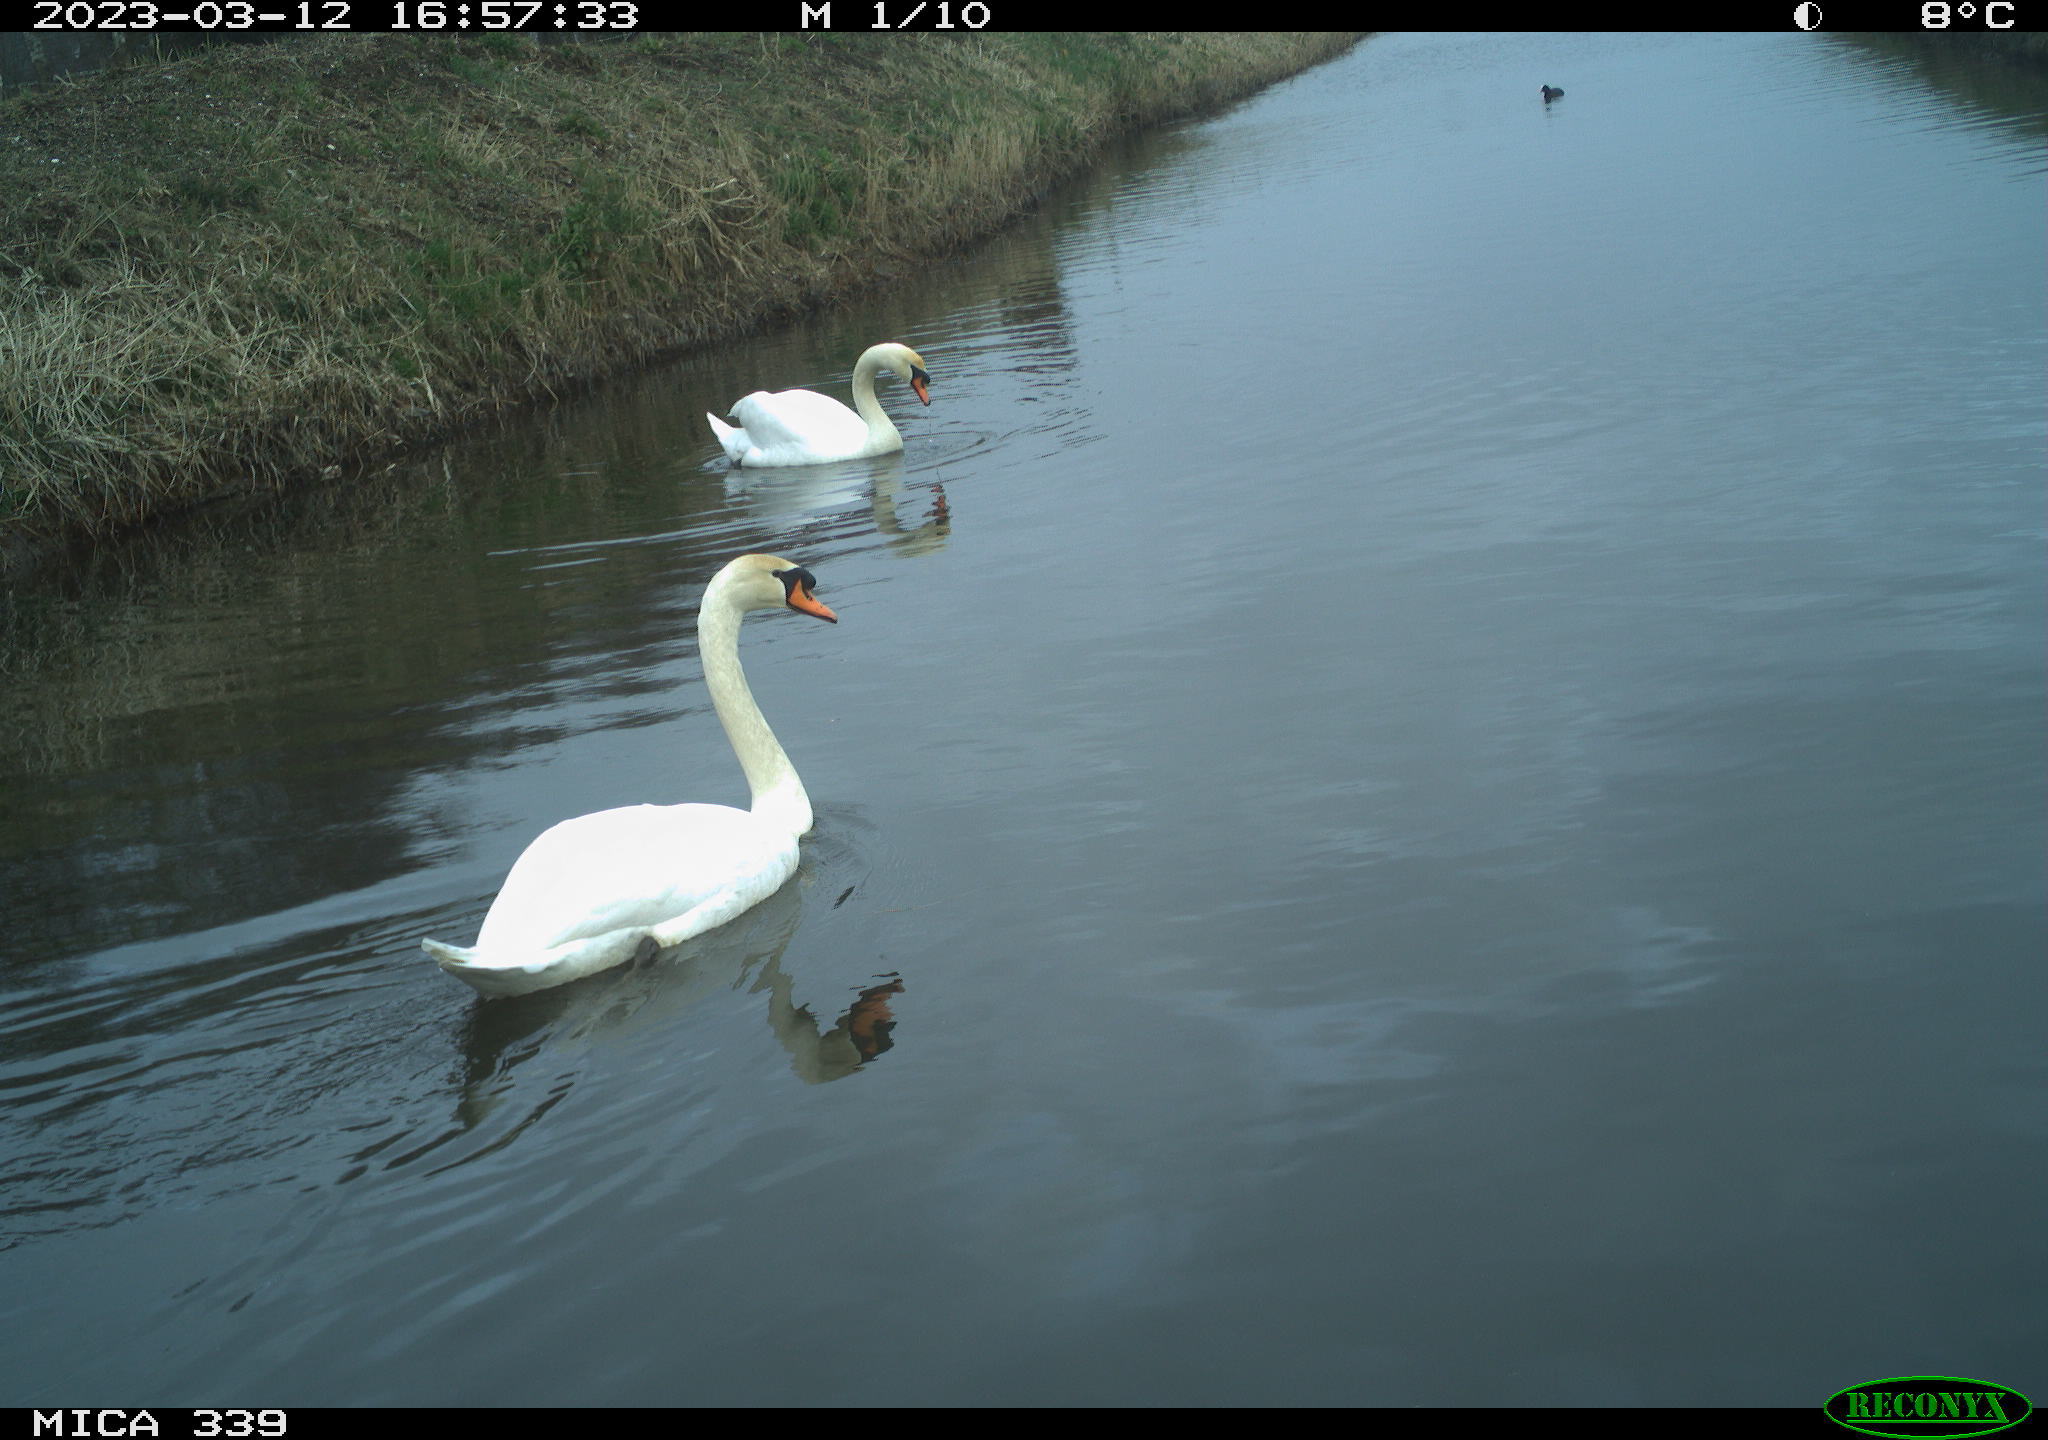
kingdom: Animalia
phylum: Chordata
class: Aves
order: Gruiformes
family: Rallidae
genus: Fulica
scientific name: Fulica atra
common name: Eurasian coot
